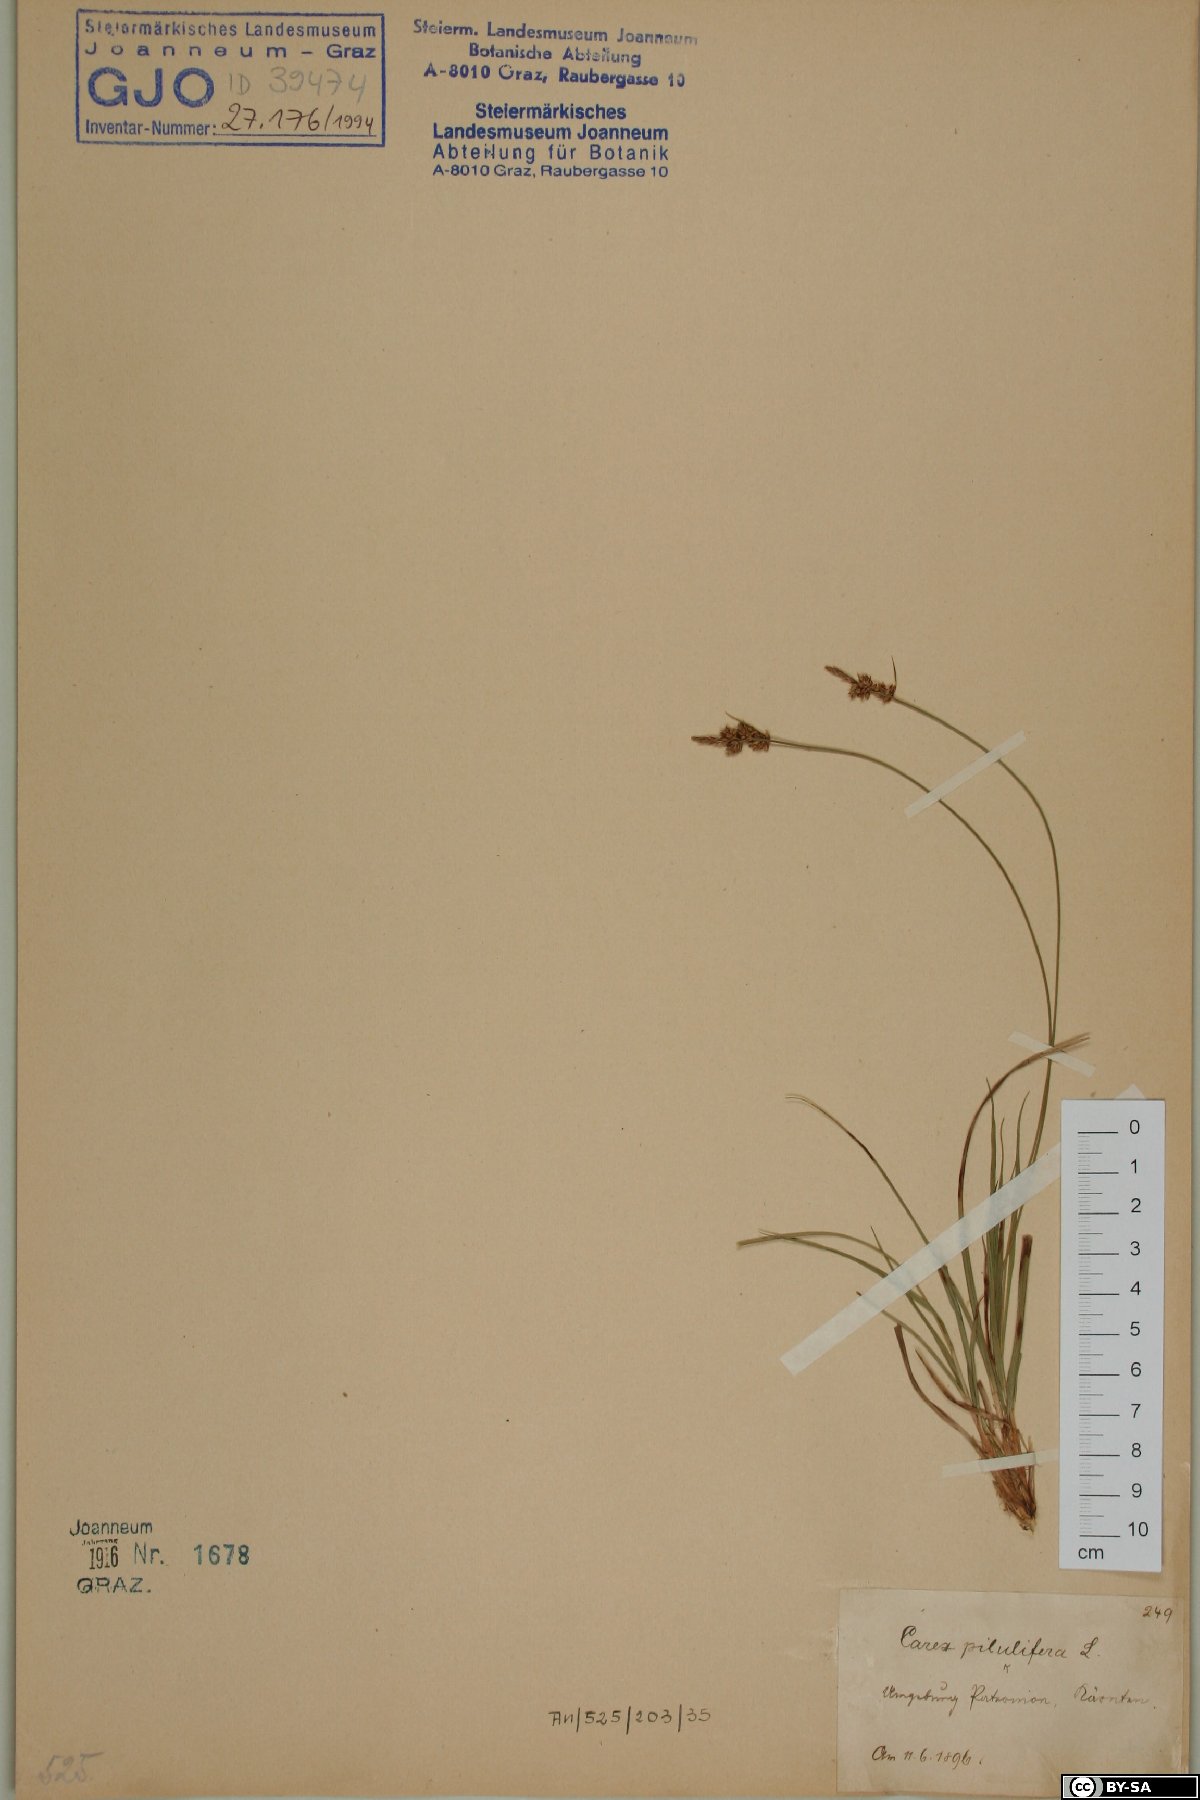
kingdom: Plantae
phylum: Tracheophyta
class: Liliopsida
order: Poales
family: Cyperaceae
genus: Carex
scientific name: Carex pilulifera
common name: Pill sedge
